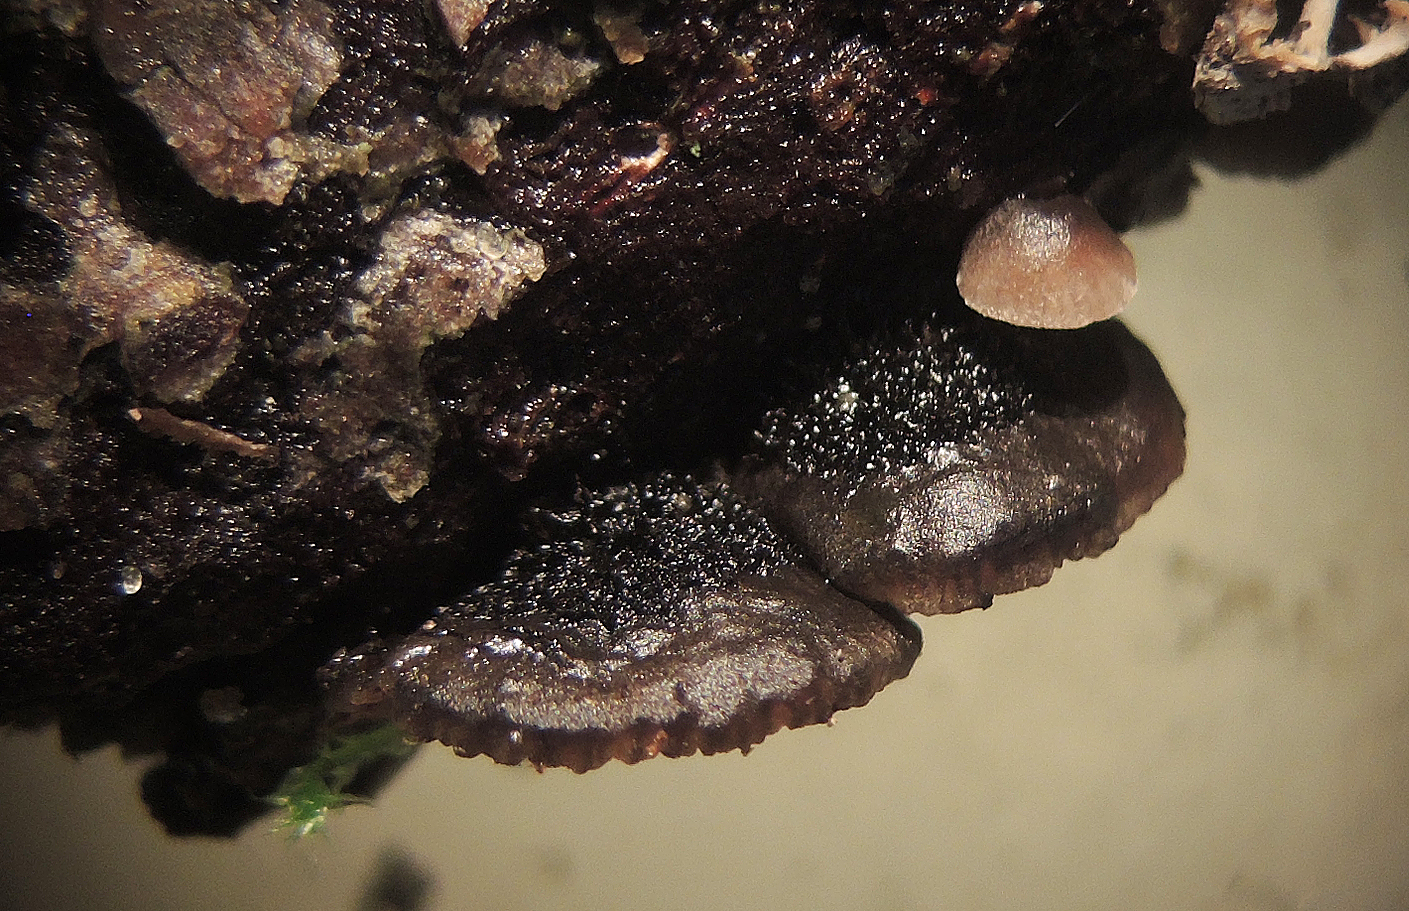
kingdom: Fungi
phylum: Basidiomycota
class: Agaricomycetes
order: Agaricales
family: Pleurotaceae
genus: Resupinatus
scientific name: Resupinatus trichotis
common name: mørkfiltet barkhat
